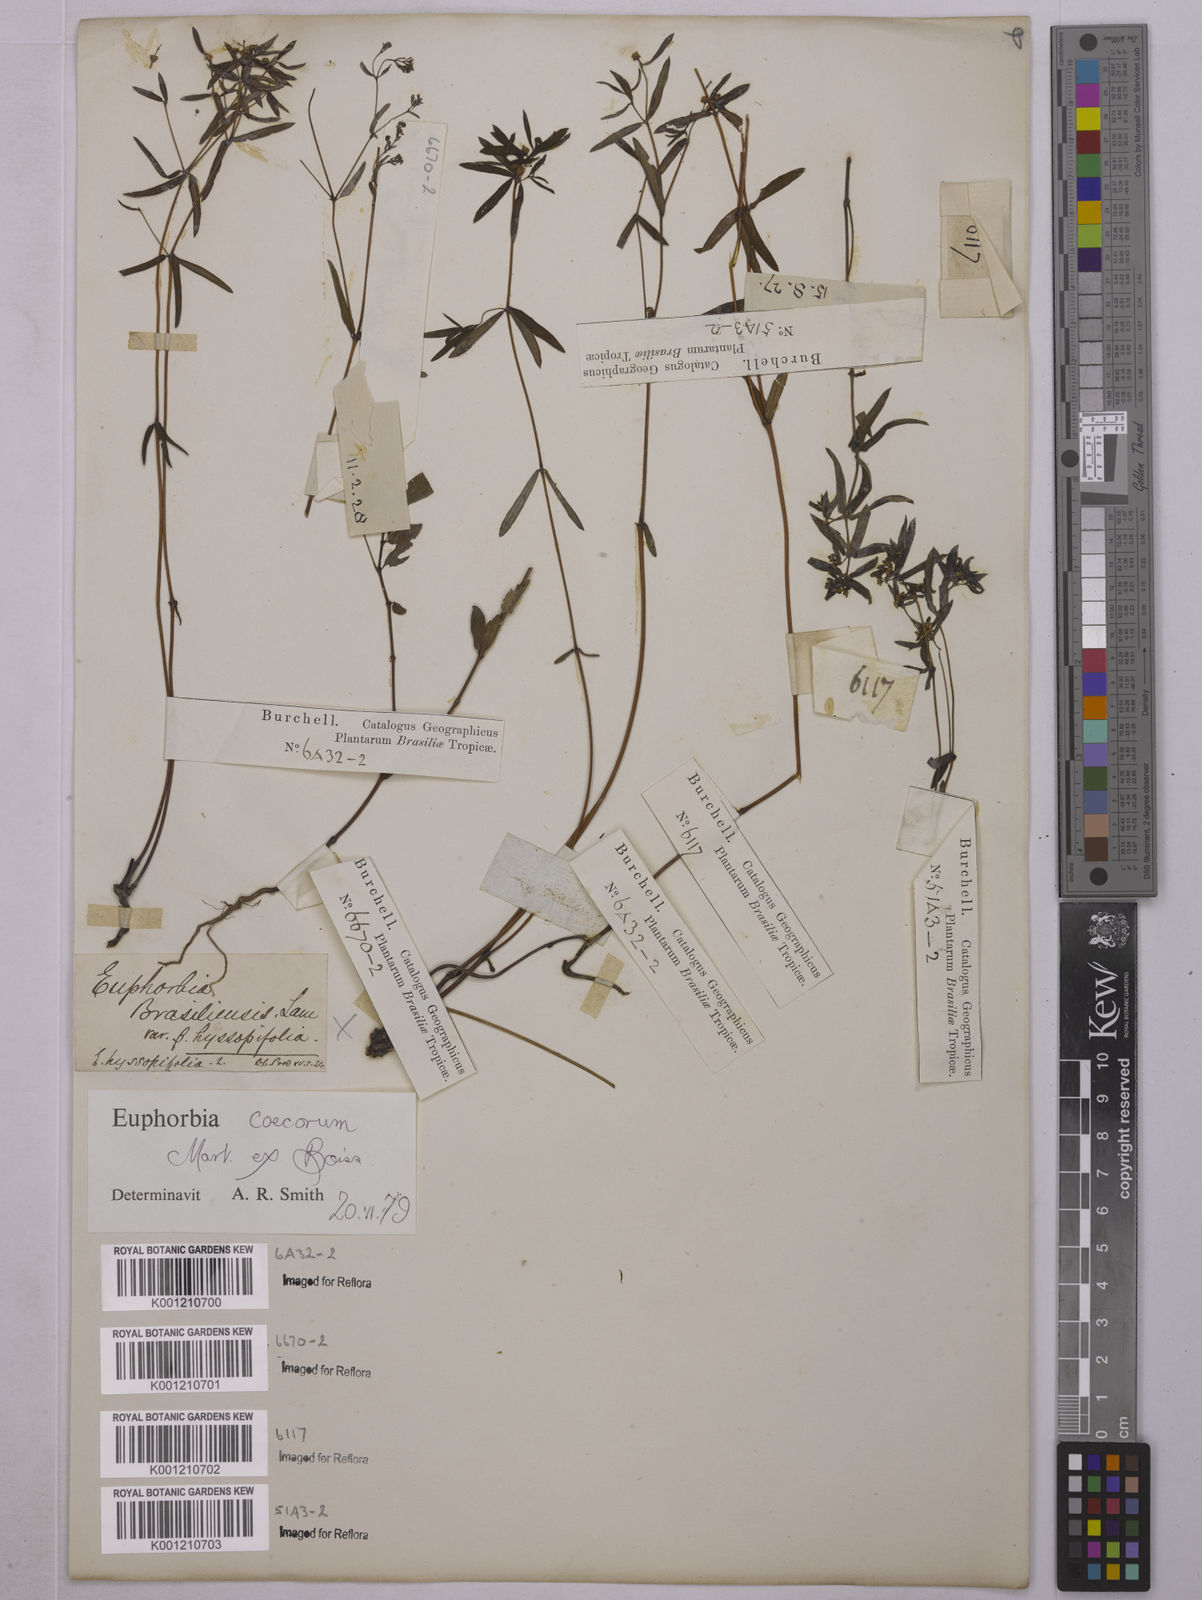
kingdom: Plantae
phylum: Tracheophyta
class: Magnoliopsida
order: Malpighiales
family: Euphorbiaceae
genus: Euphorbia
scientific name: Euphorbia potentilloides
